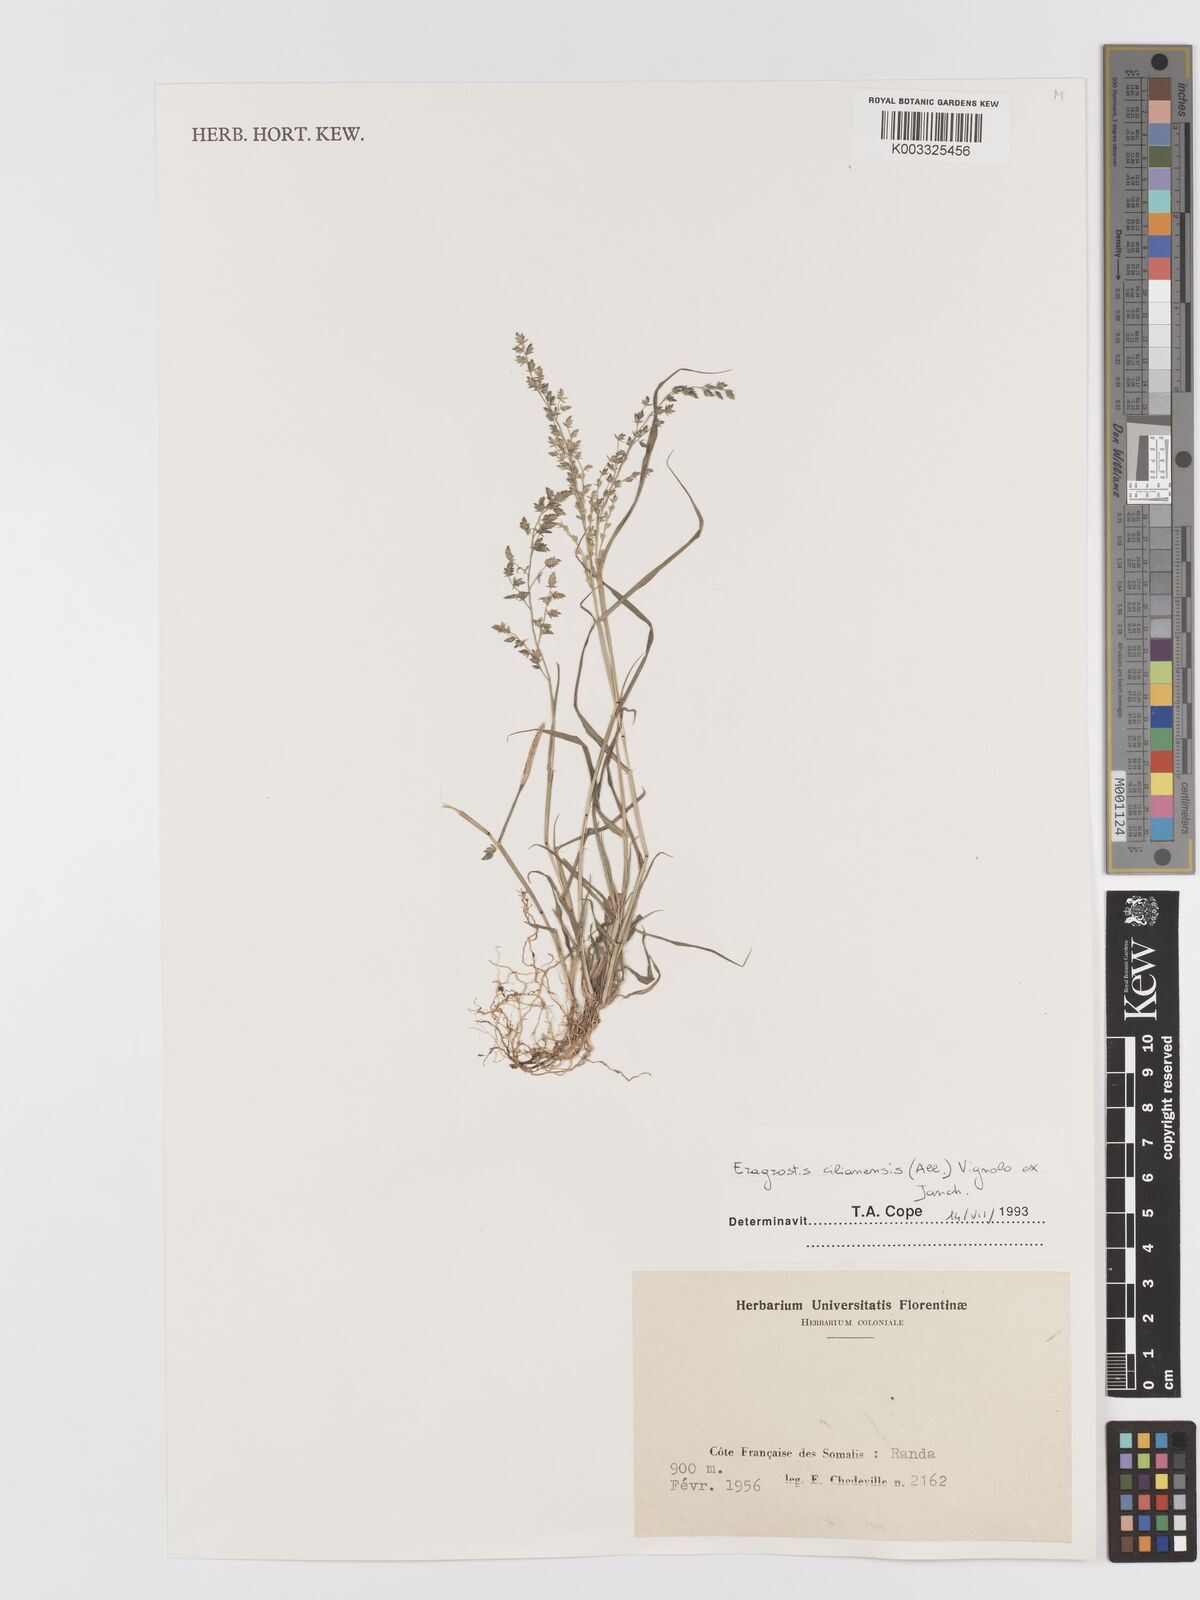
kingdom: Plantae
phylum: Tracheophyta
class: Liliopsida
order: Poales
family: Poaceae
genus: Eragrostis
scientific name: Eragrostis cilianensis
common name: Stinkgrass
